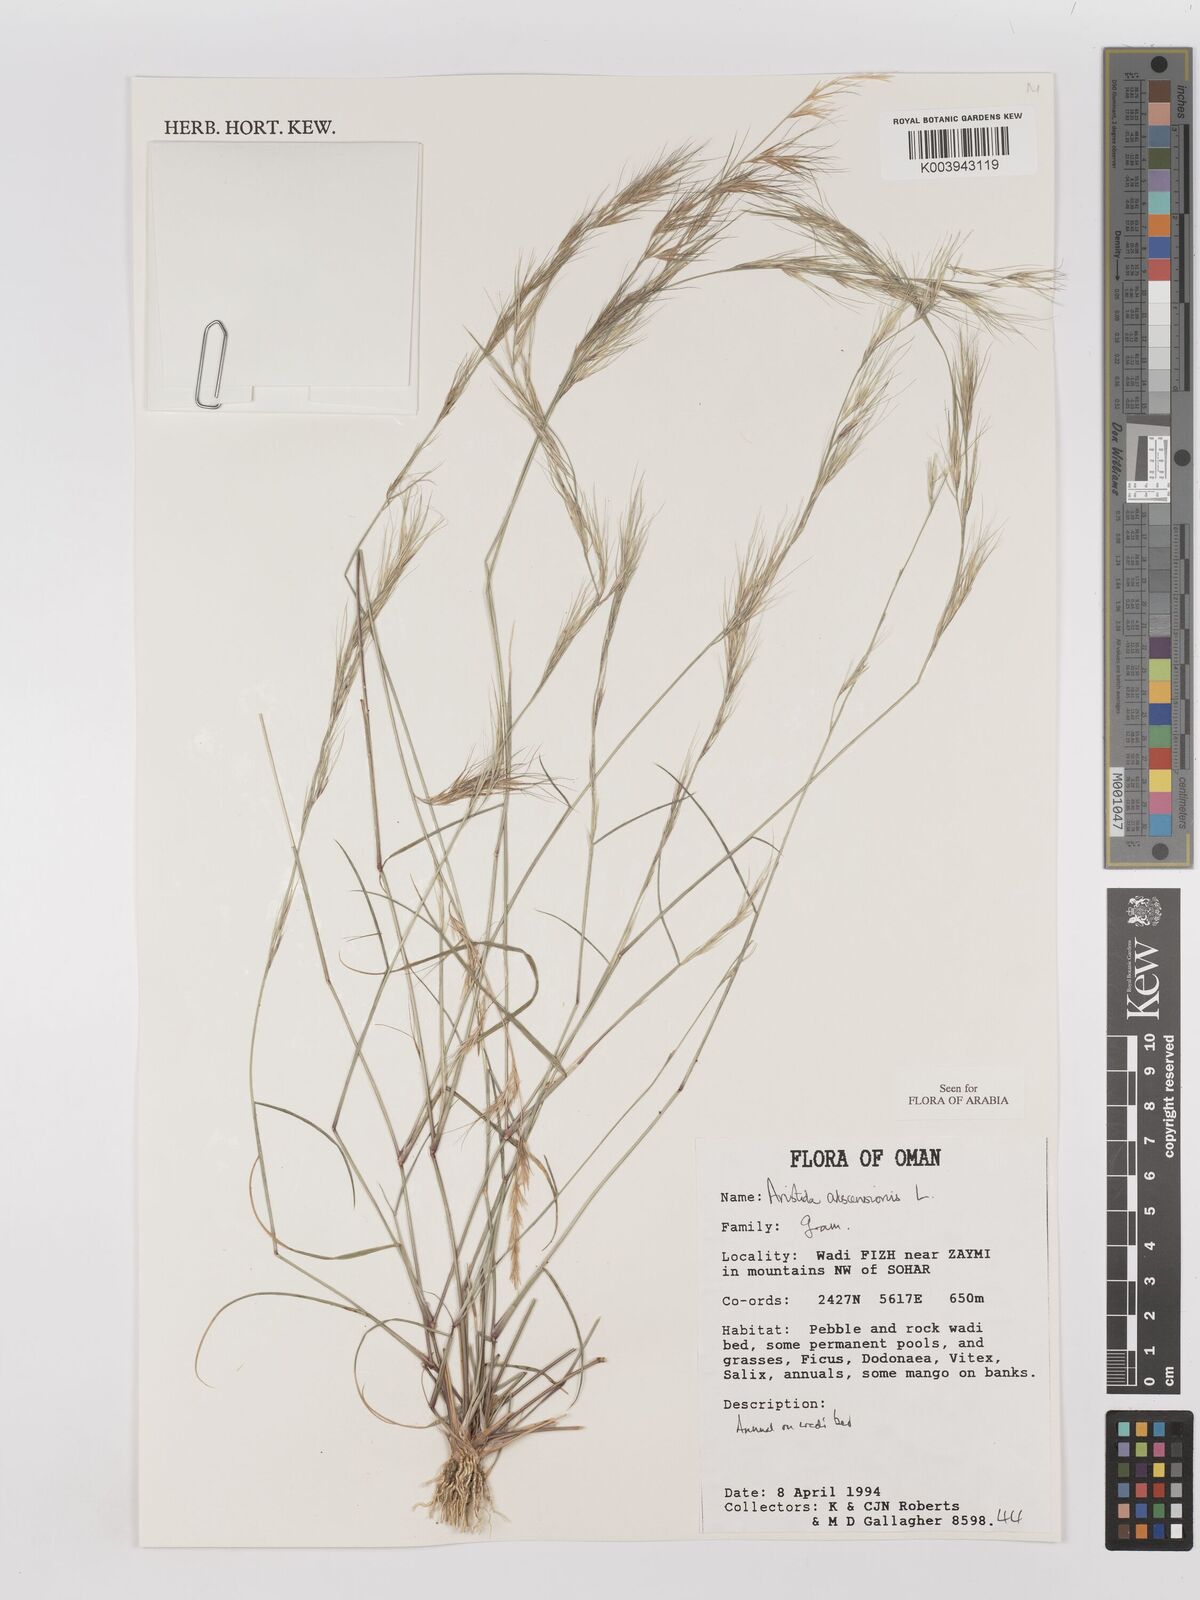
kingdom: Plantae
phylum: Tracheophyta
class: Liliopsida
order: Poales
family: Poaceae
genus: Aristida
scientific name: Aristida adscensionis
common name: Sixweeks threeawn
